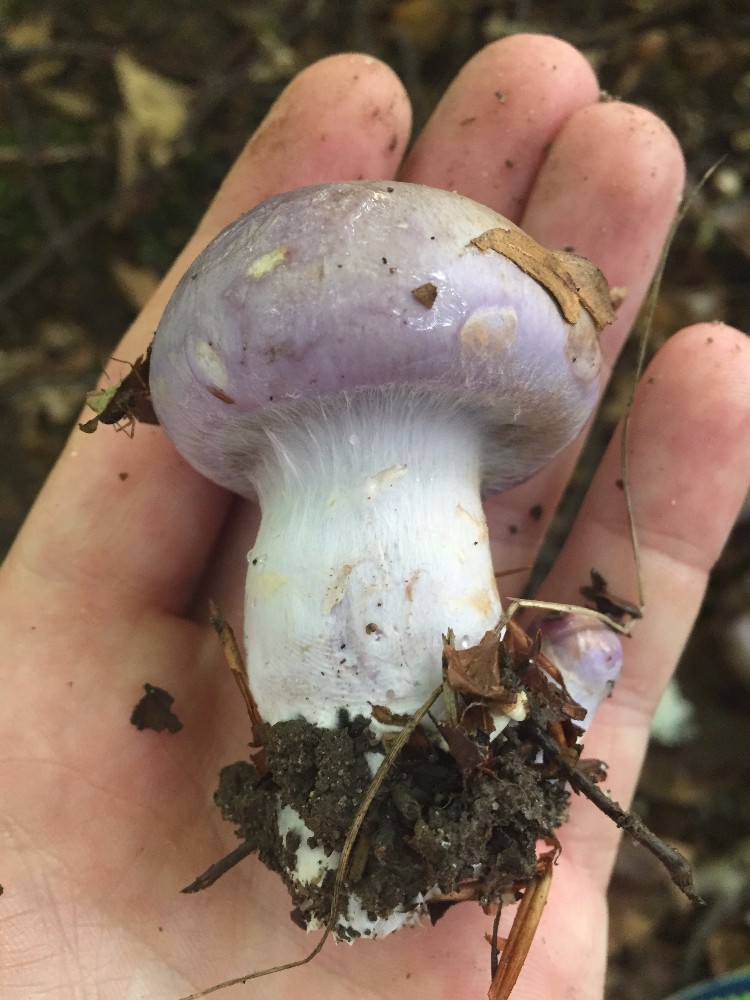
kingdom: Fungi
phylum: Basidiomycota
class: Agaricomycetes
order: Agaricales
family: Cortinariaceae
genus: Cortinarius
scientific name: Cortinarius largus
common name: violetrandet slørhat
